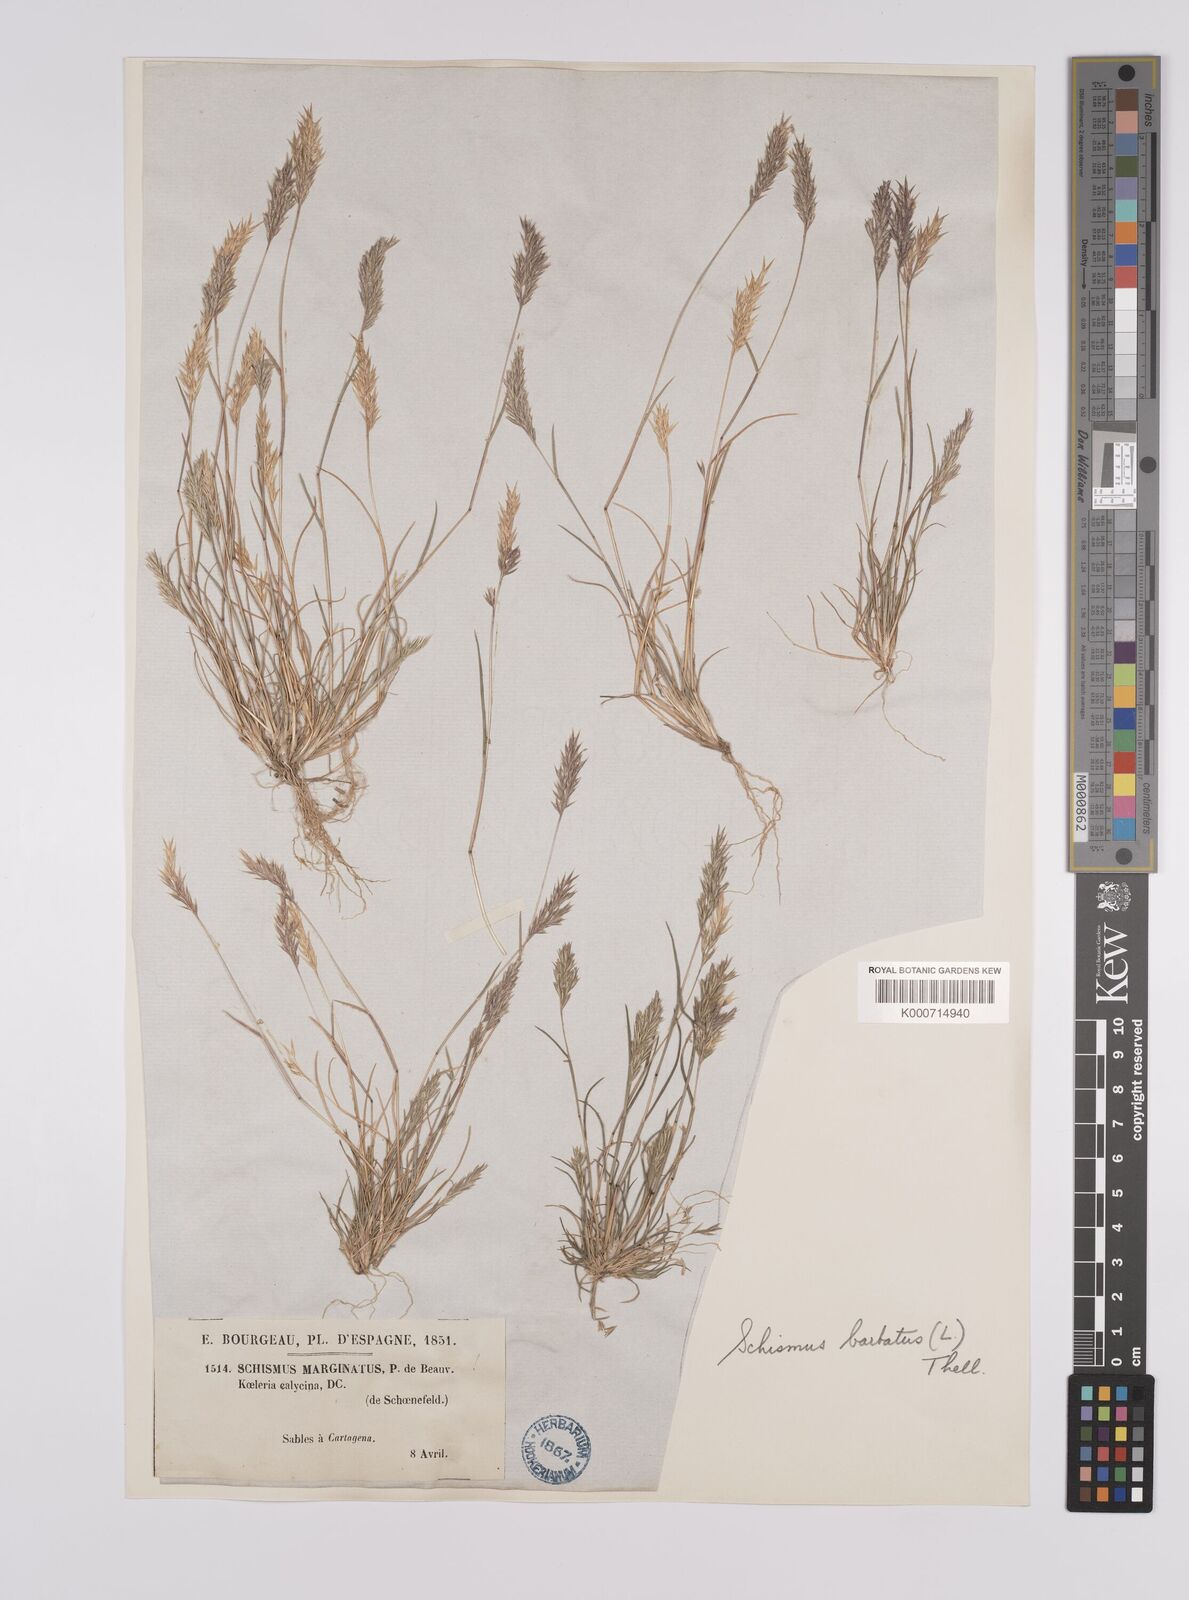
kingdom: Plantae
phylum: Tracheophyta
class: Liliopsida
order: Poales
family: Poaceae
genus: Schismus
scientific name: Schismus barbatus
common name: Kelch-grass
